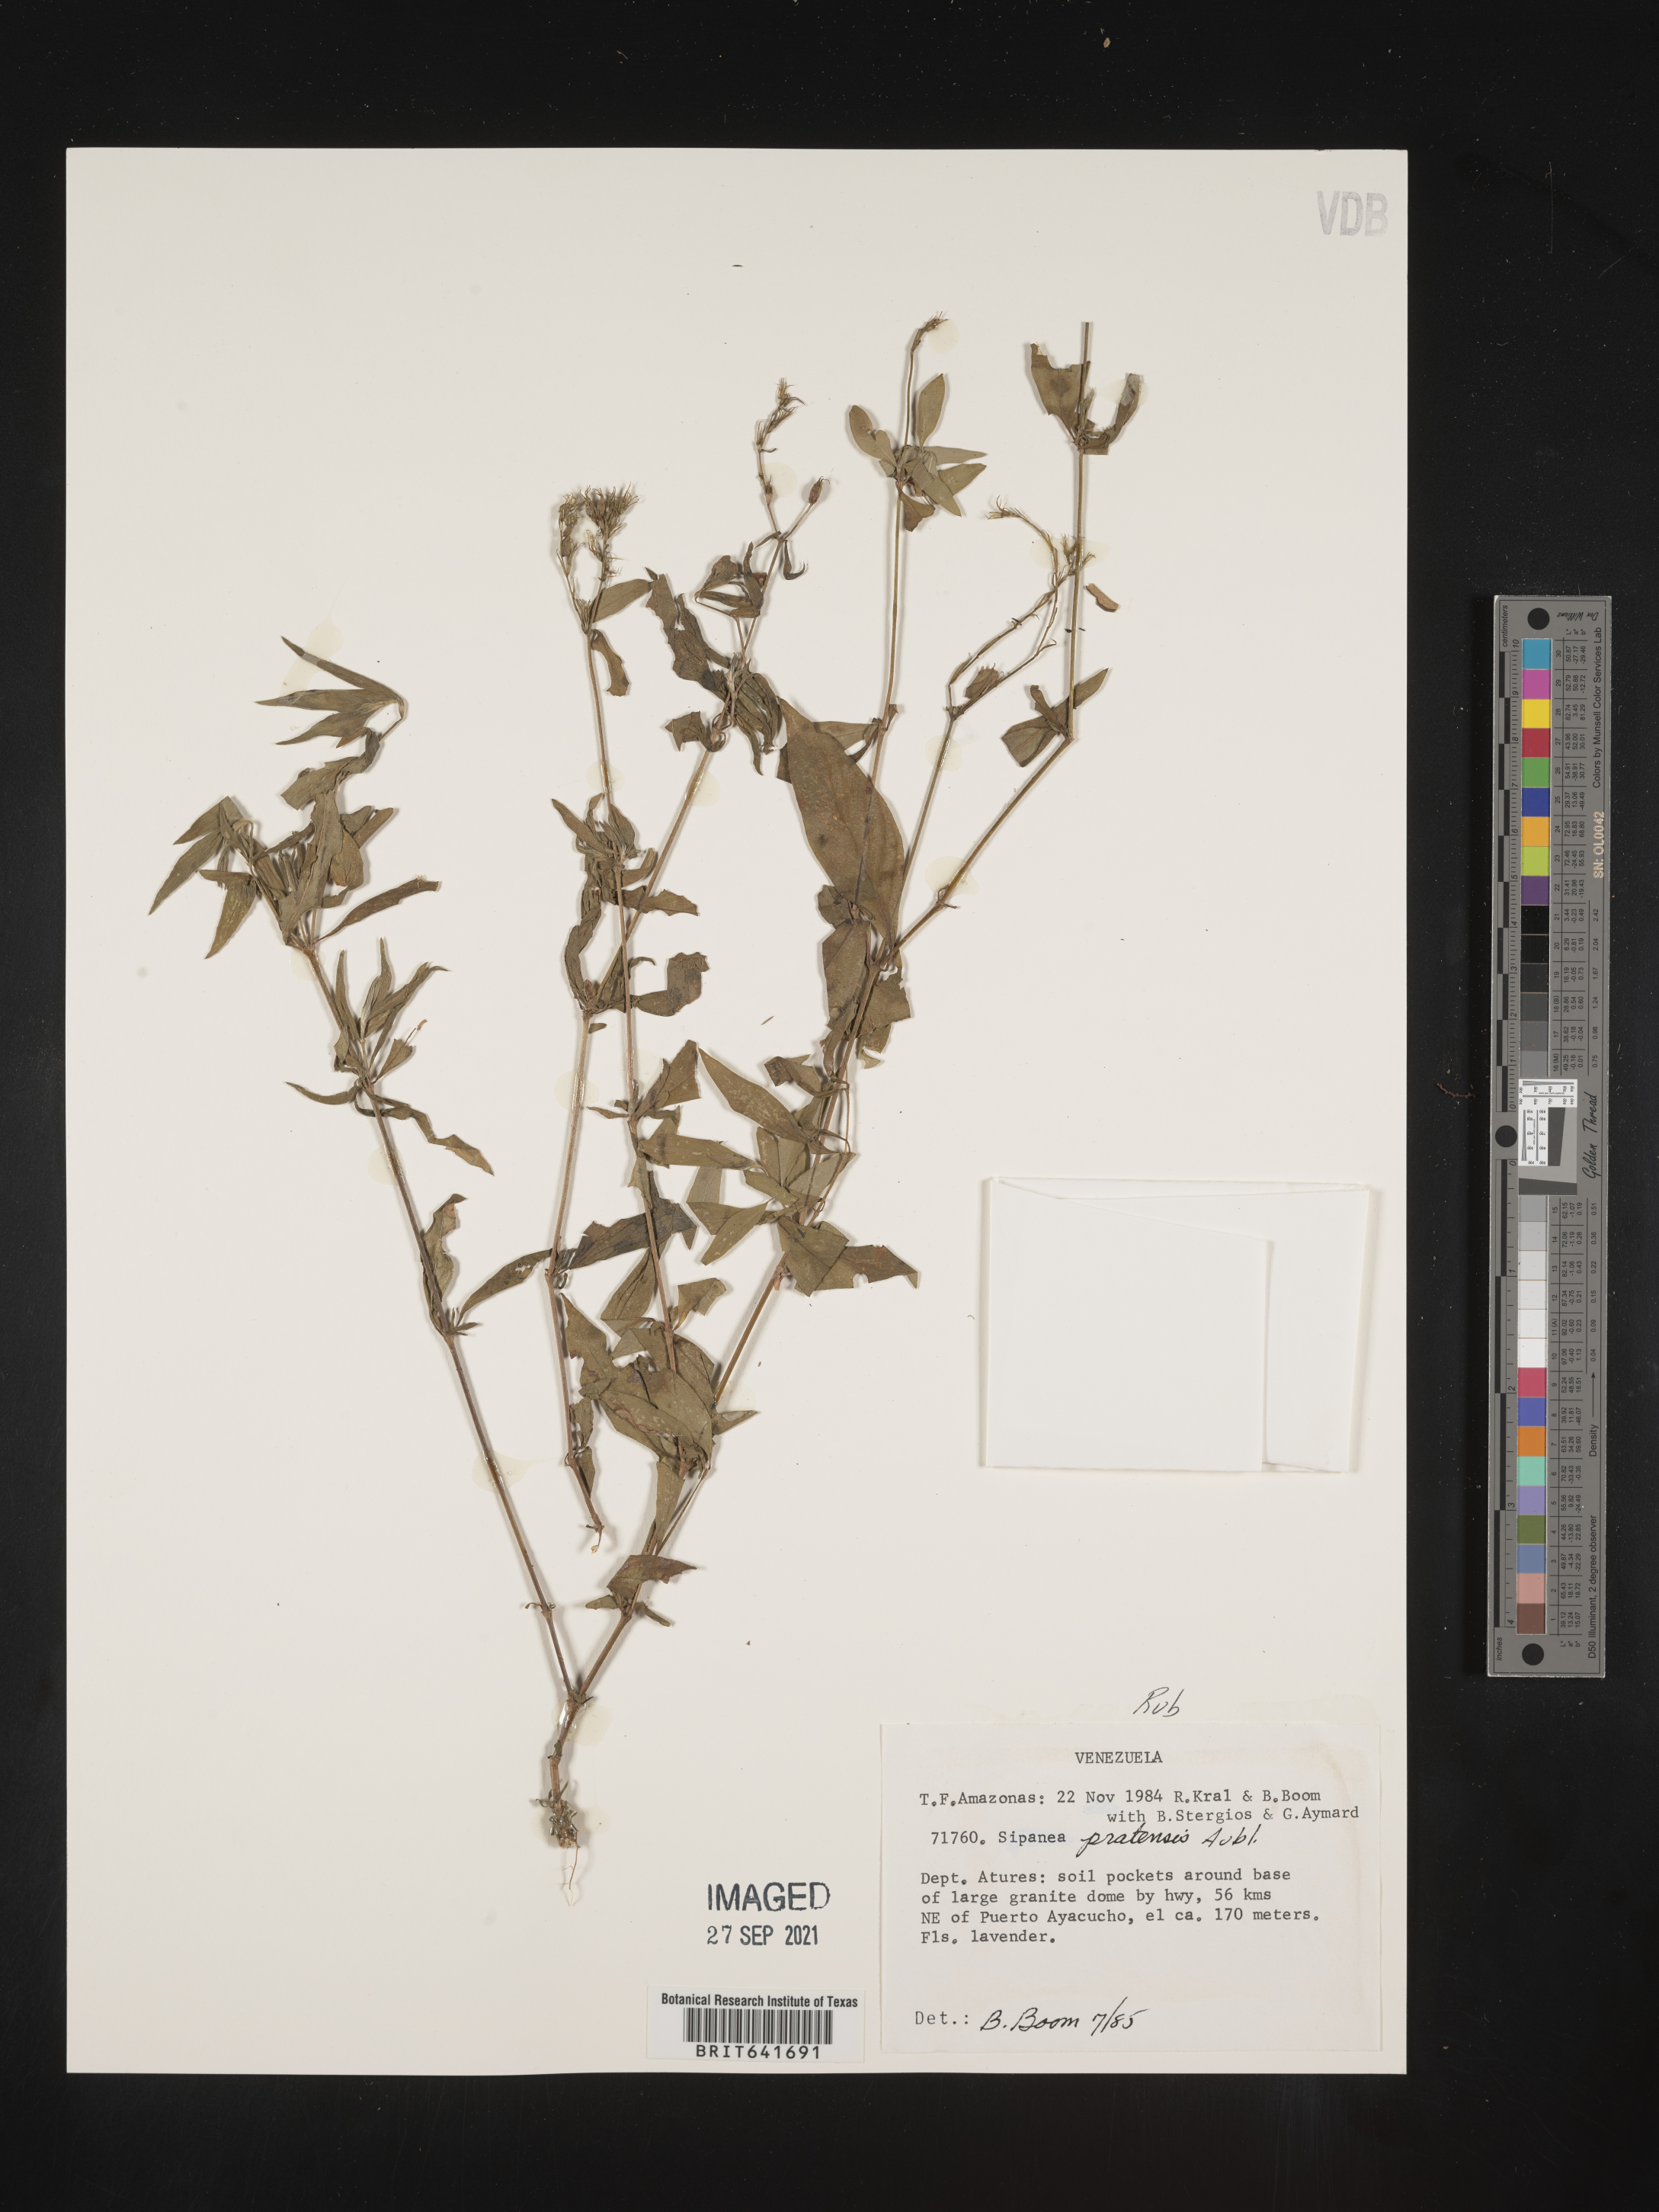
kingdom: Plantae
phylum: Tracheophyta
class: Magnoliopsida
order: Gentianales
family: Rubiaceae
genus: Sipanea
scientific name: Sipanea
